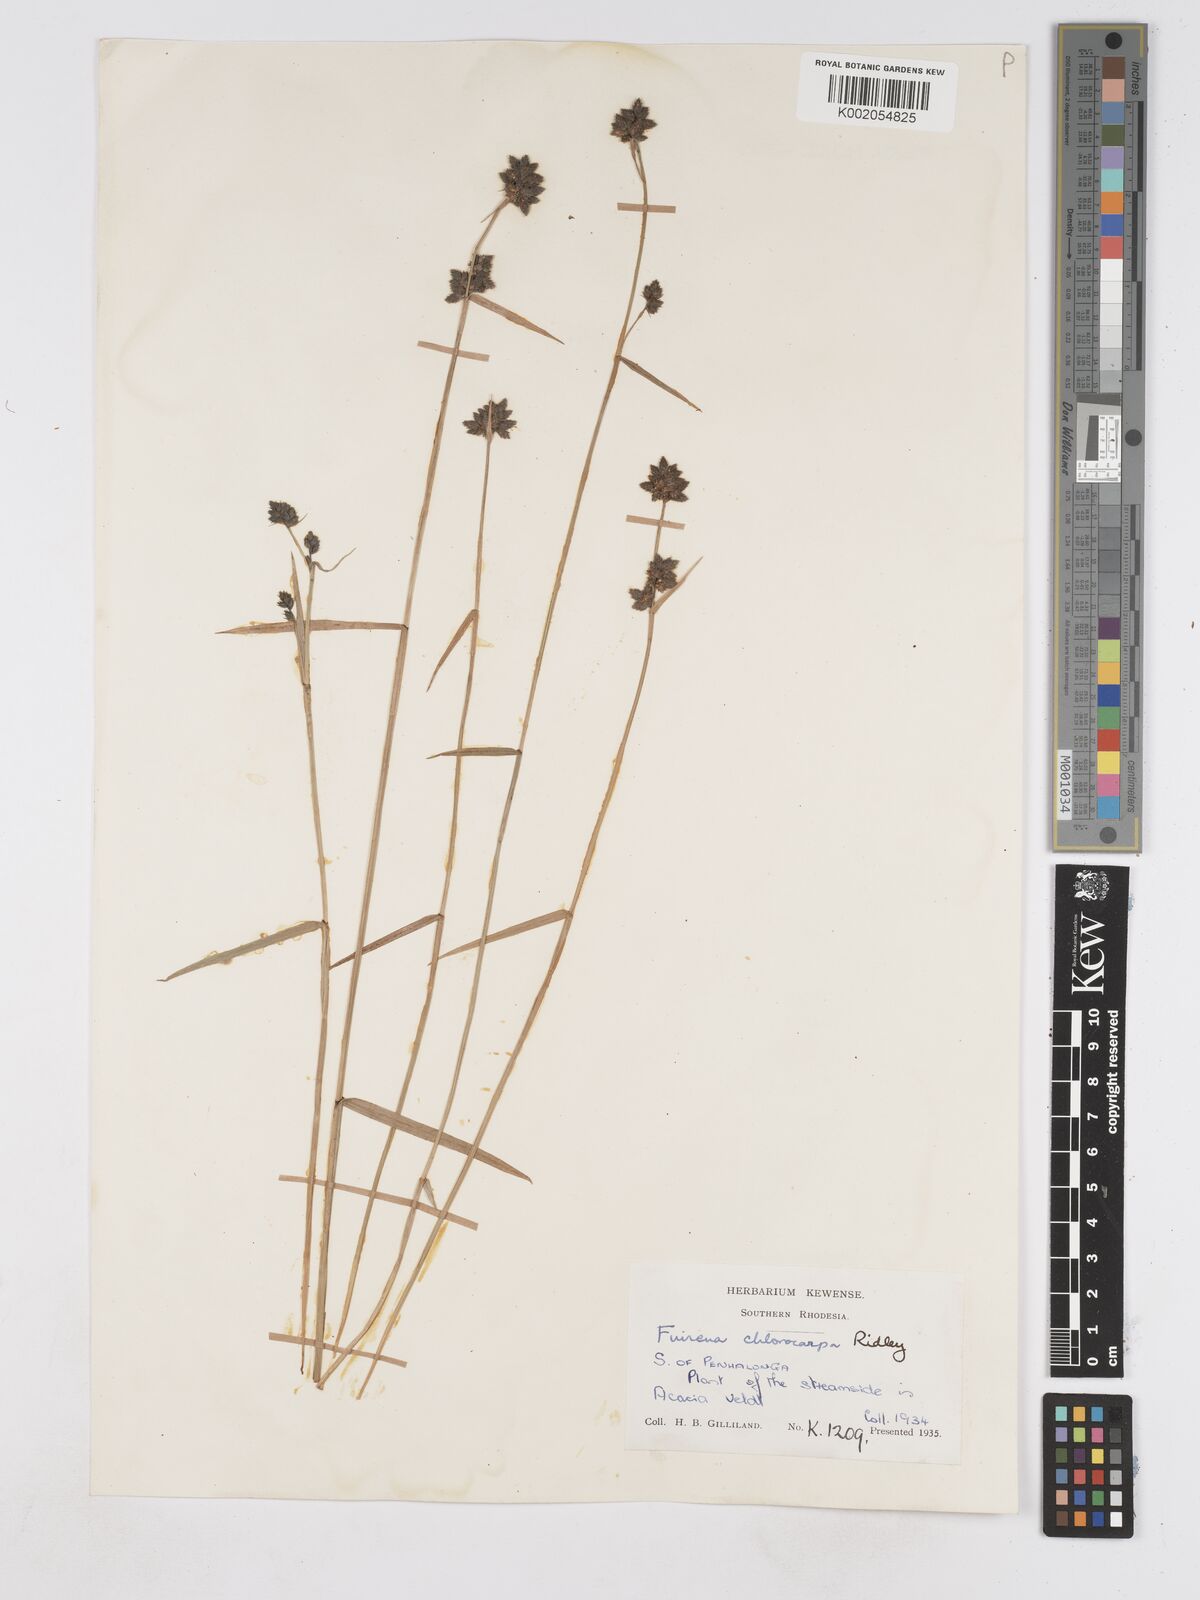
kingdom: Plantae
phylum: Tracheophyta
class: Liliopsida
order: Poales
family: Cyperaceae
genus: Fuirena
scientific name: Fuirena stricta
